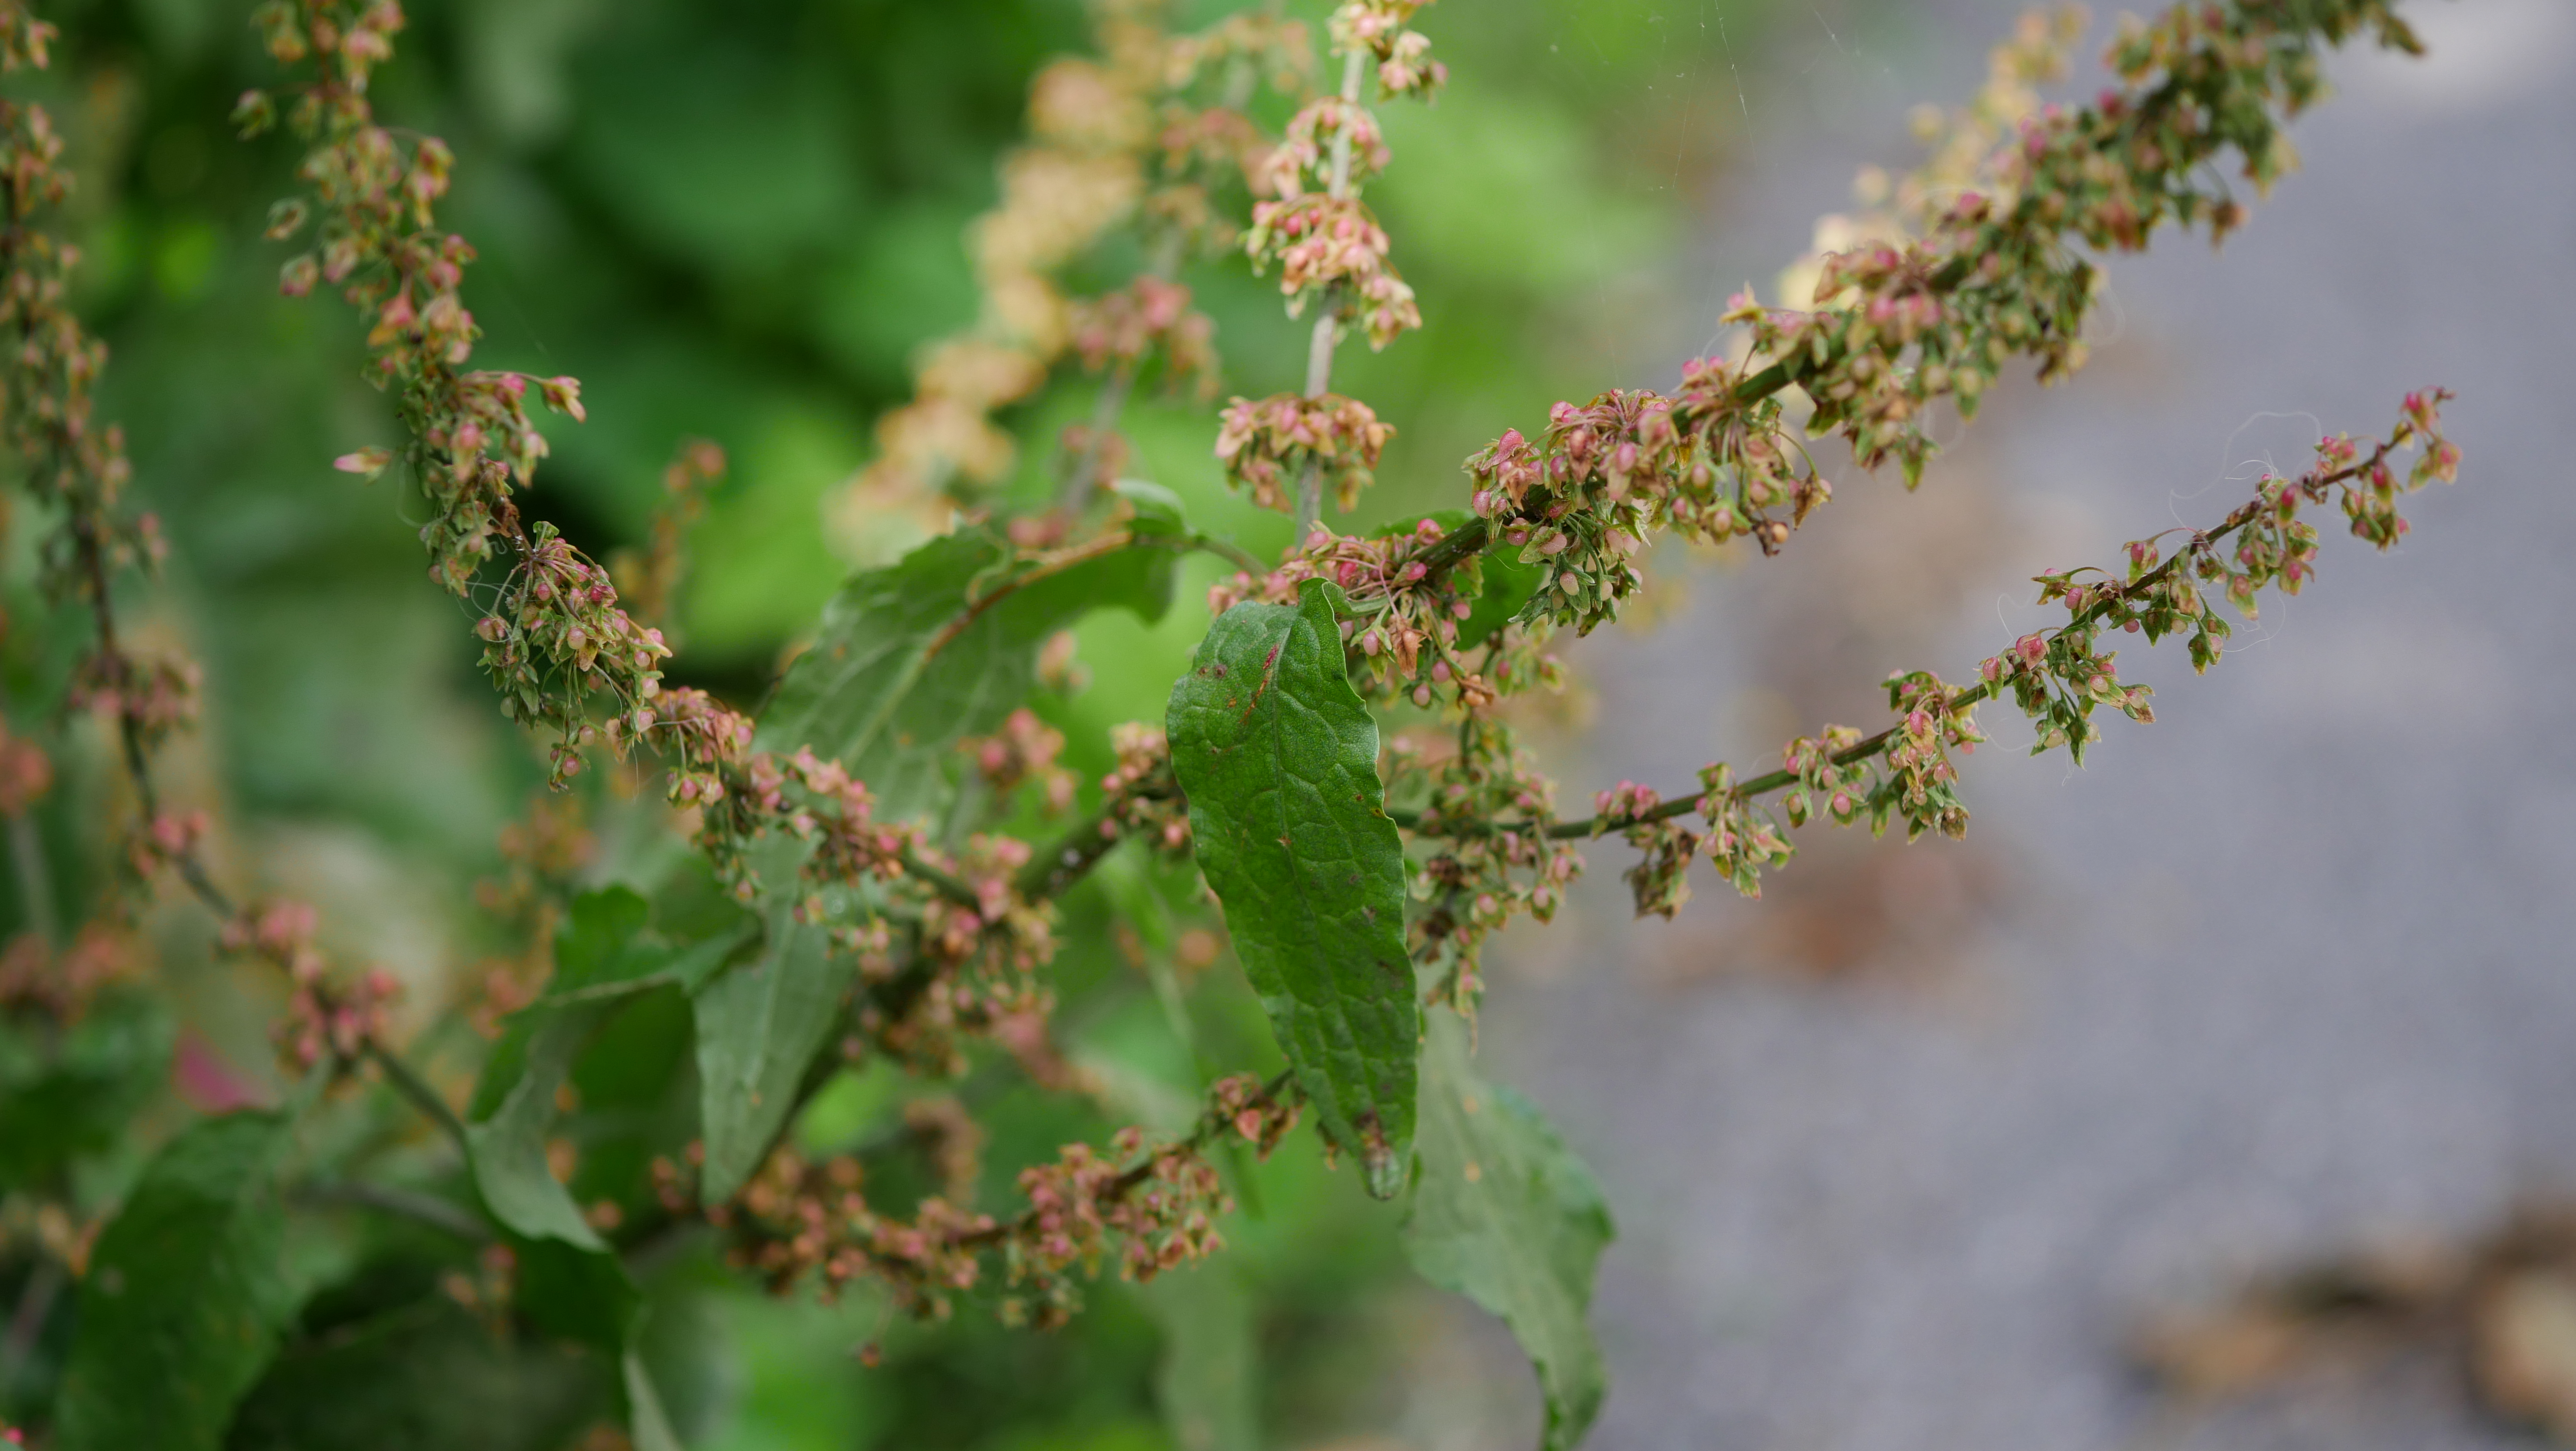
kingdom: Plantae
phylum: Tracheophyta
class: Magnoliopsida
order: Caryophyllales
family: Polygonaceae
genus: Rumex
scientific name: Rumex sanguineus
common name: Skov-skræppe
